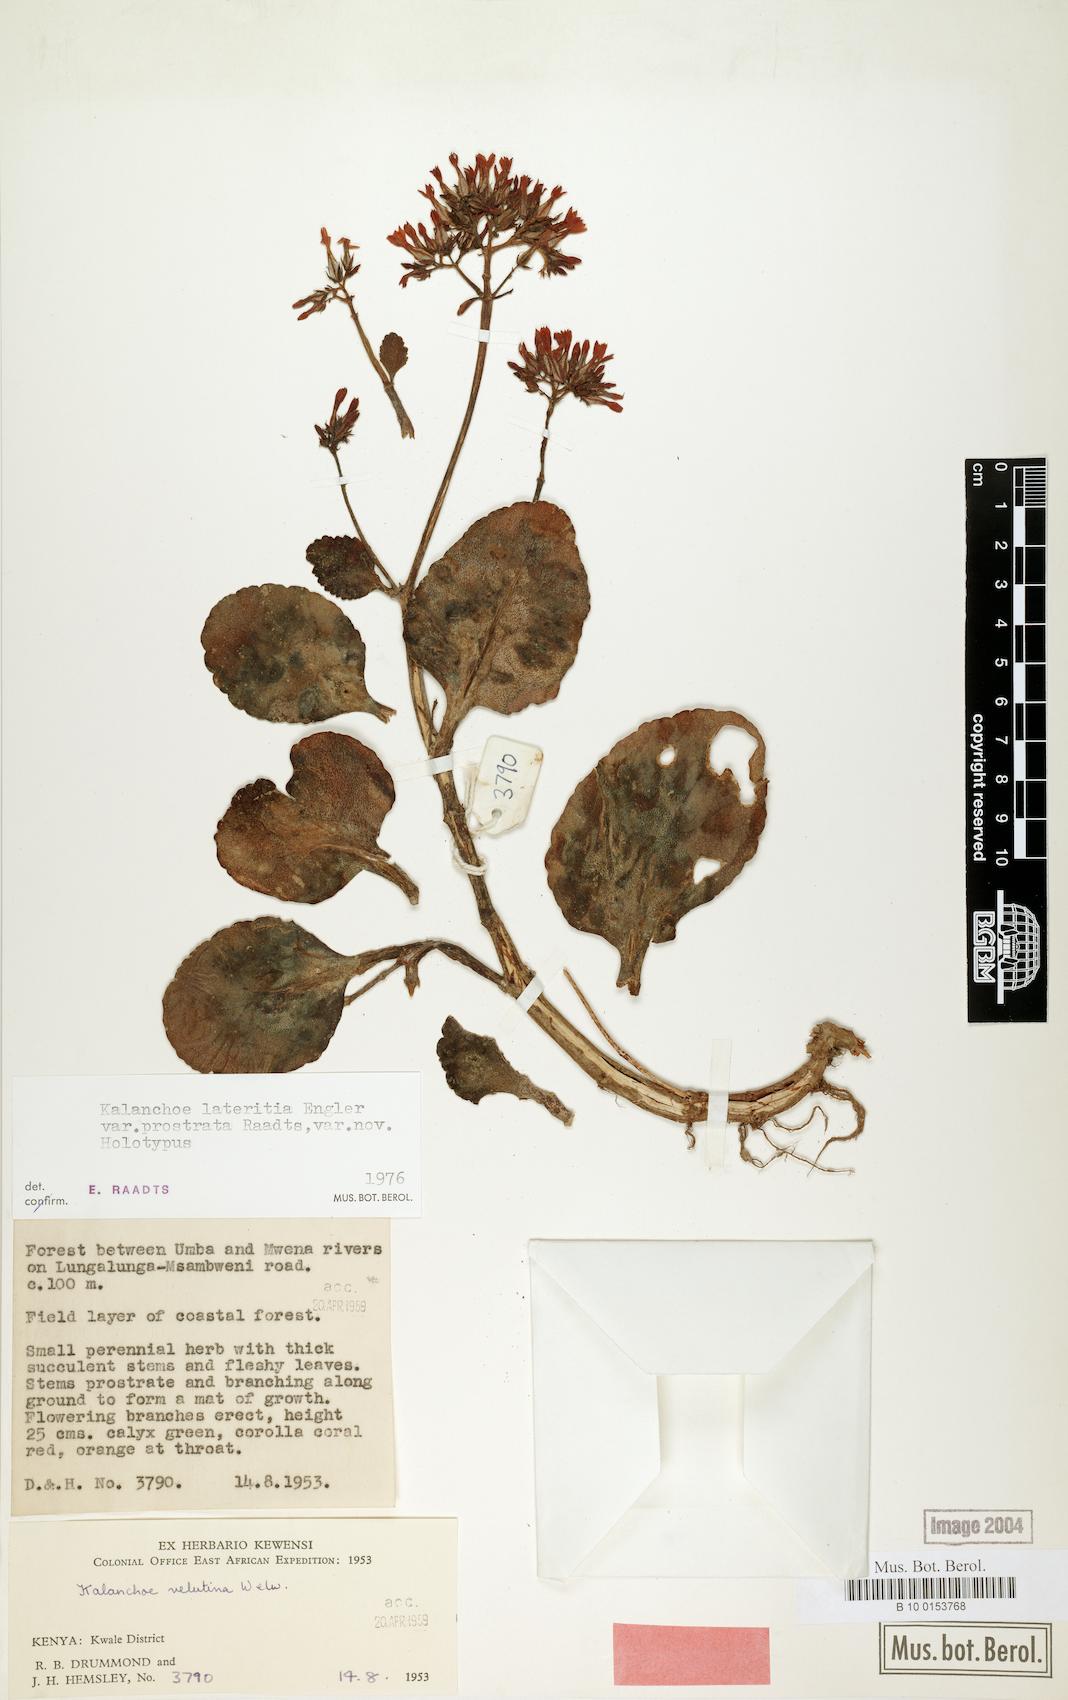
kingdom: Plantae
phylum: Tracheophyta
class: Magnoliopsida
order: Saxifragales
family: Crassulaceae
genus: Kalanchoe
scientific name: Kalanchoe lateritia
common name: Kalanchoe
